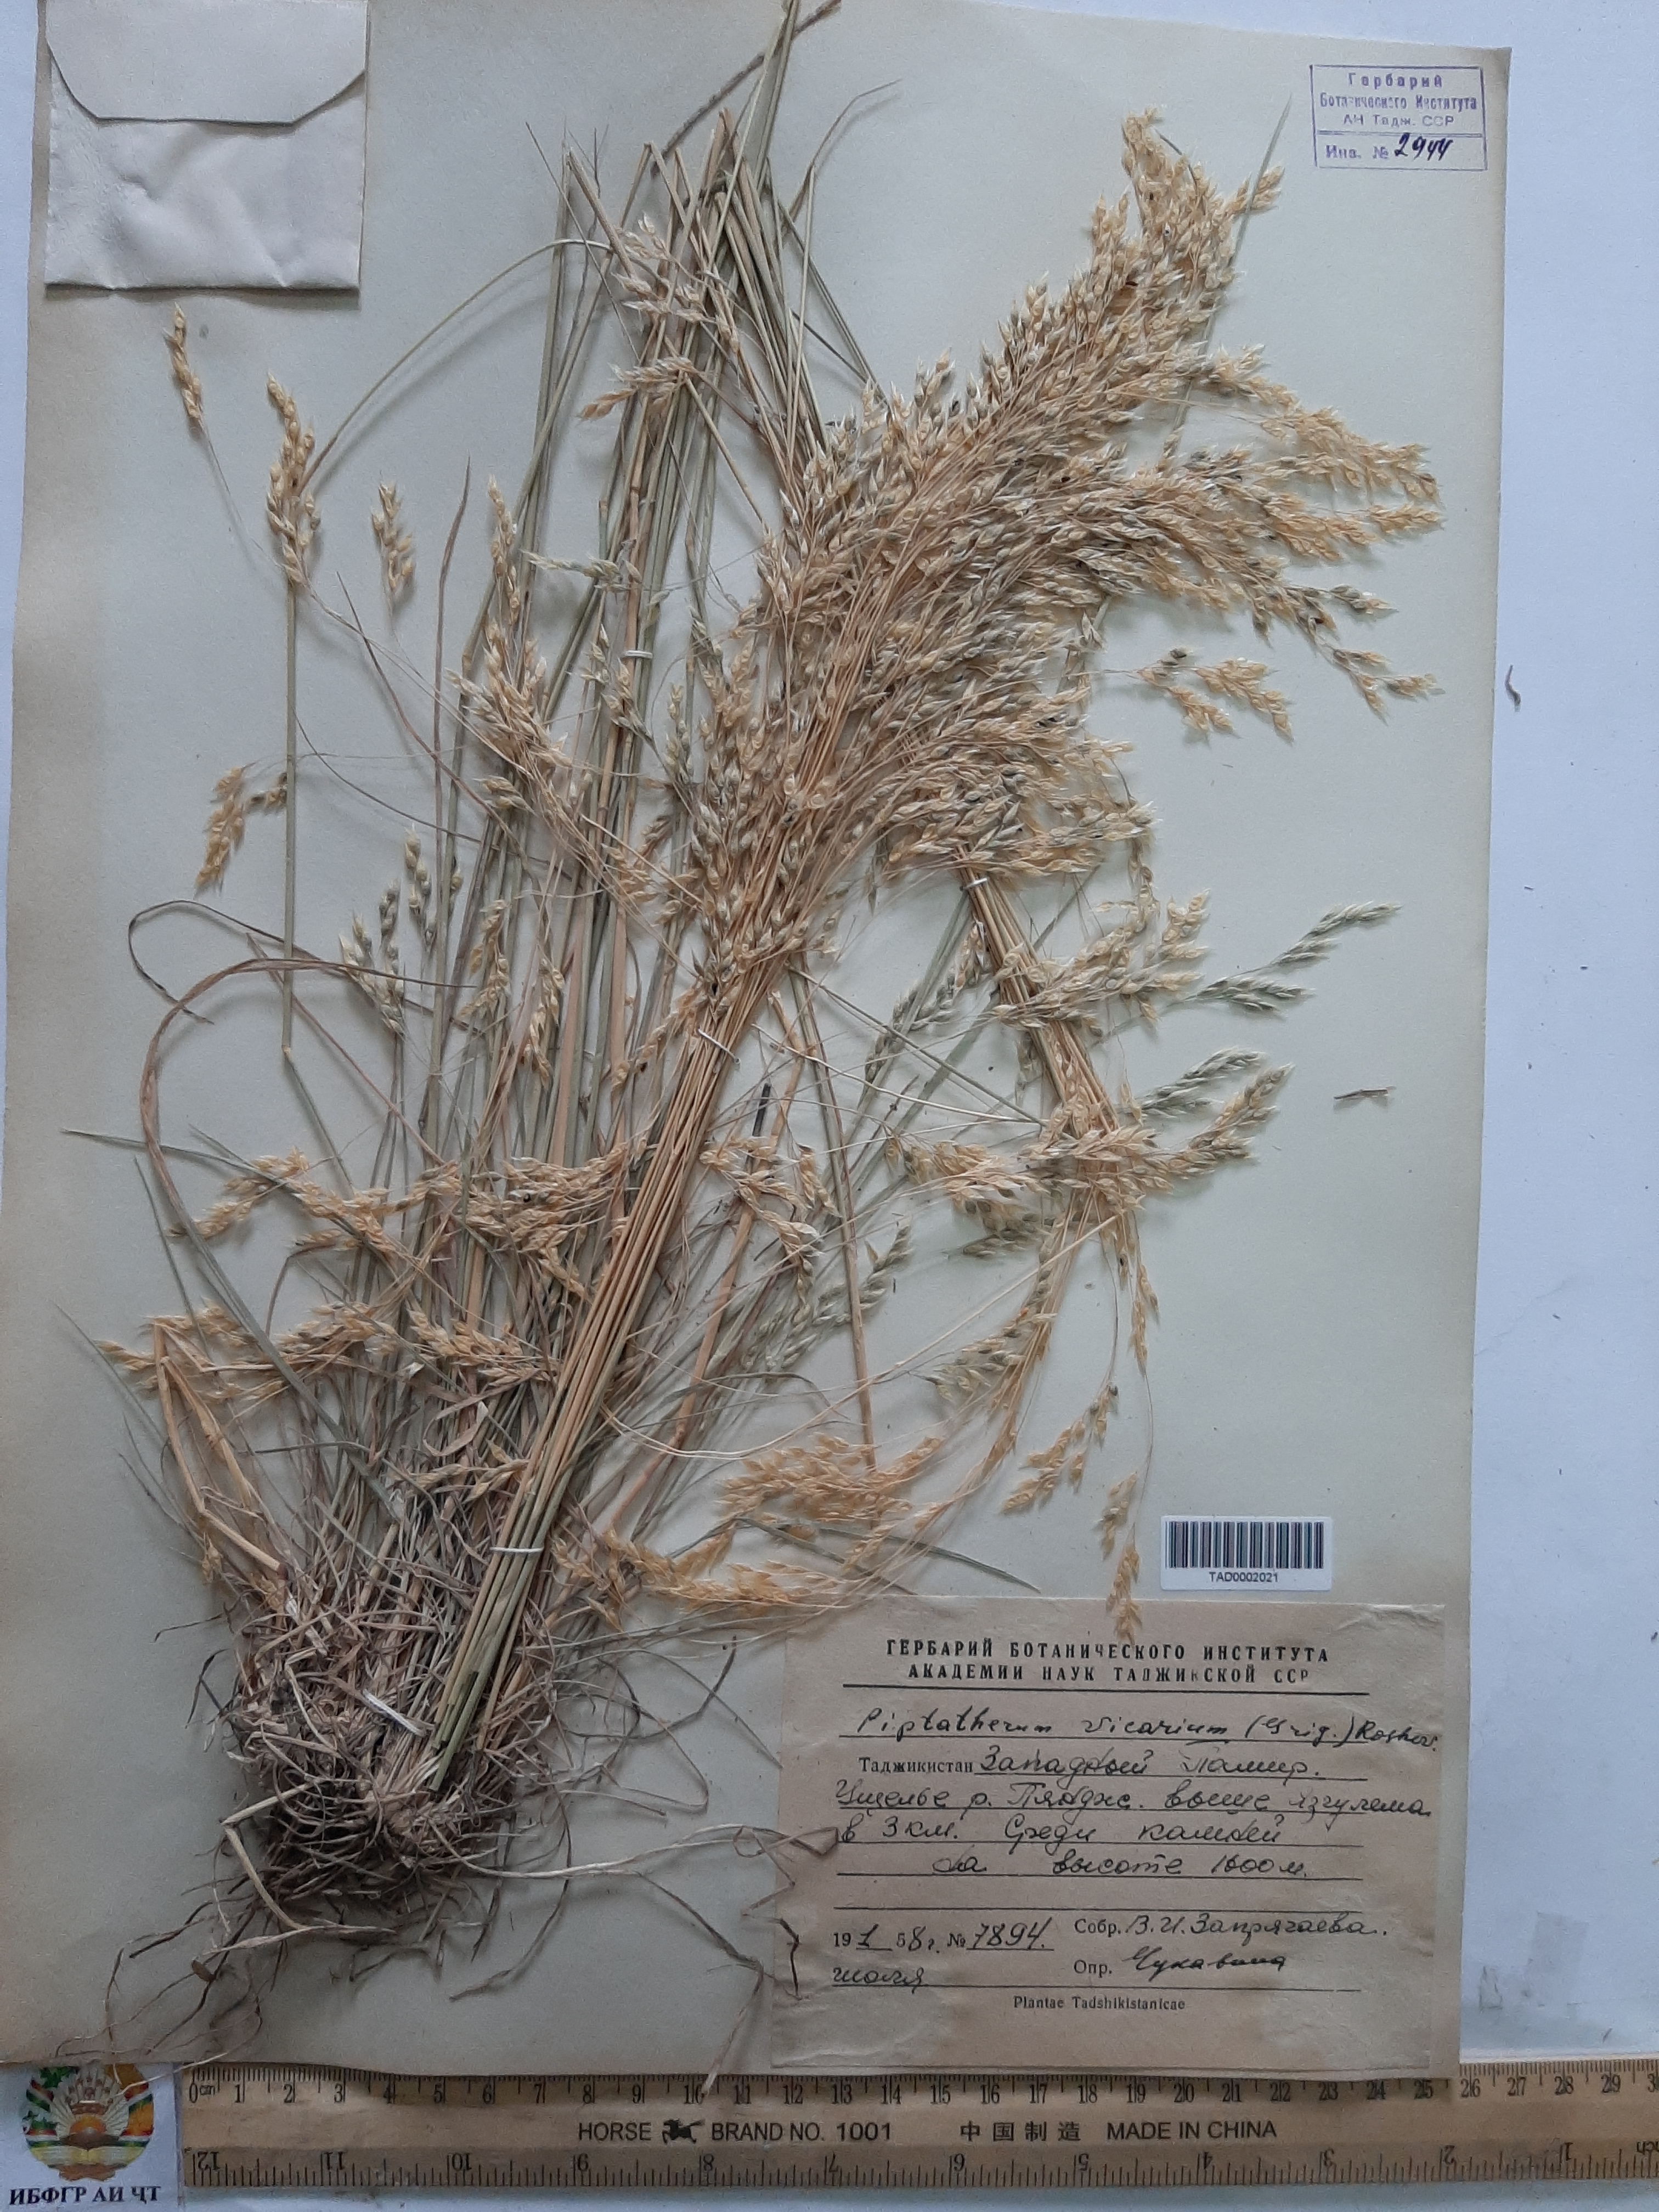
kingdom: Plantae
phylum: Tracheophyta
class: Liliopsida
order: Poales
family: Poaceae
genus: Piptatherum
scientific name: Piptatherum microcarpum
